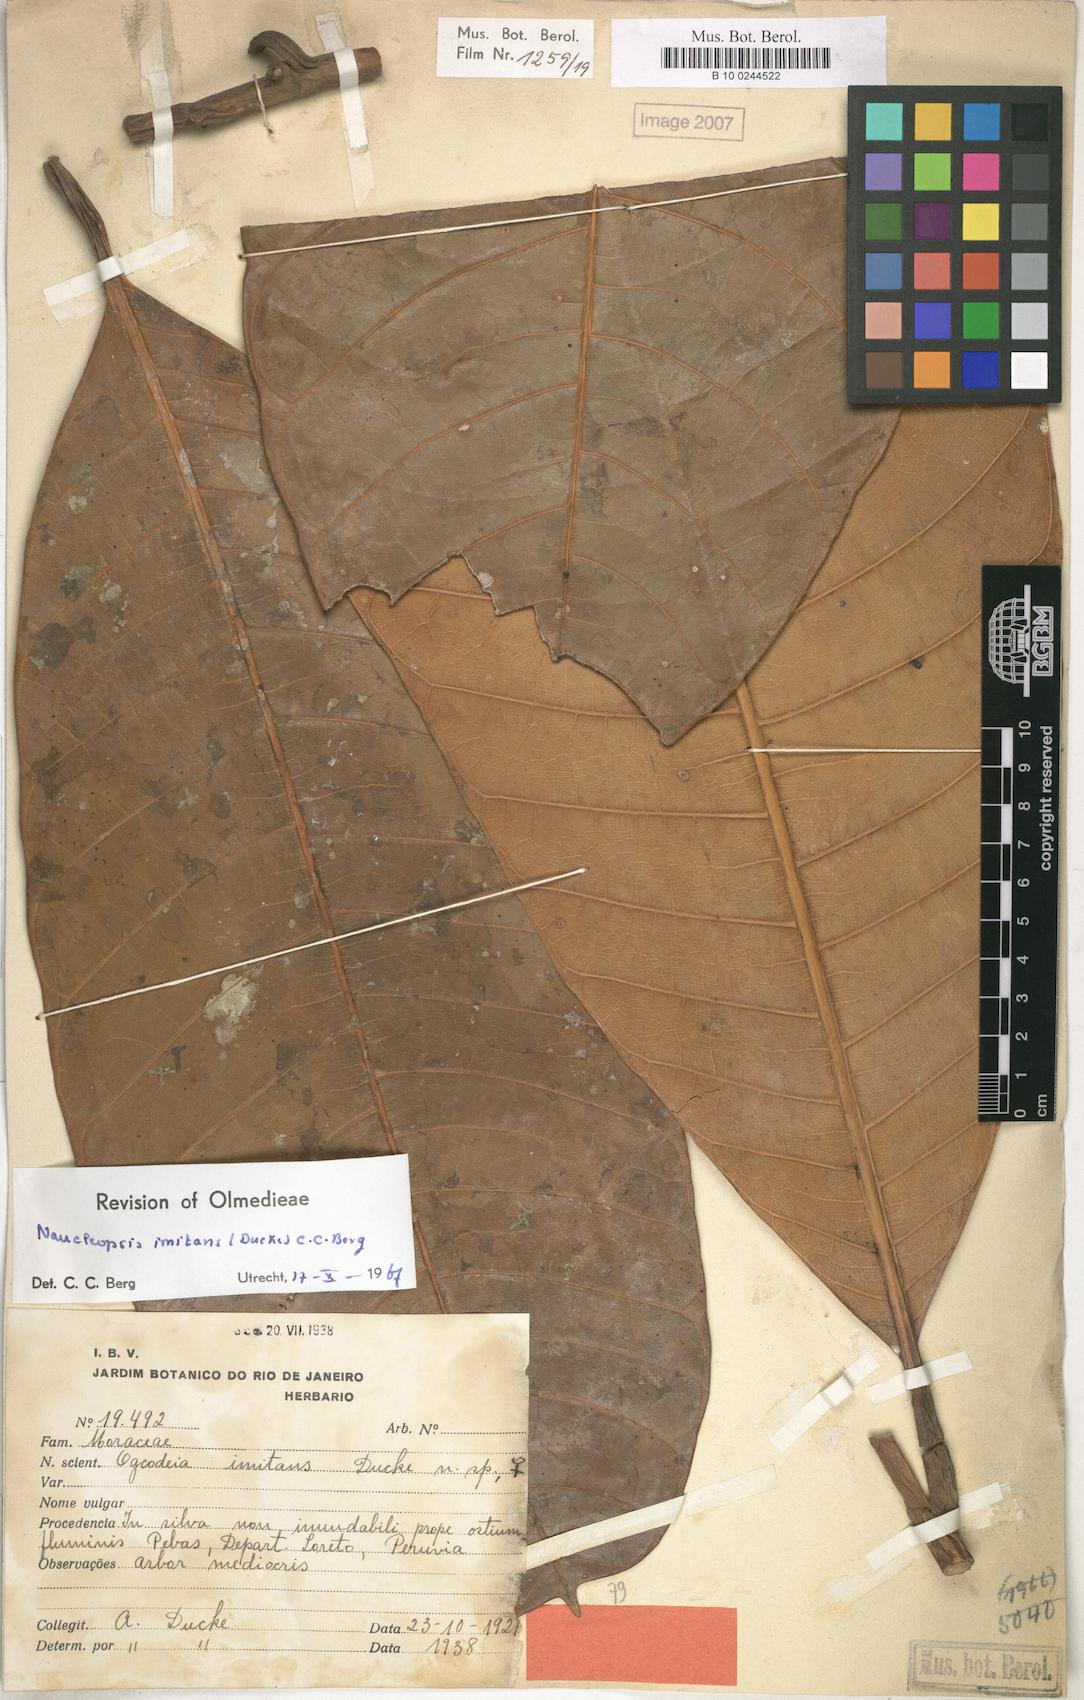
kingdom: Plantae
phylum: Tracheophyta
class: Magnoliopsida
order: Rosales
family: Moraceae
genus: Naucleopsis
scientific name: Naucleopsis imitans
